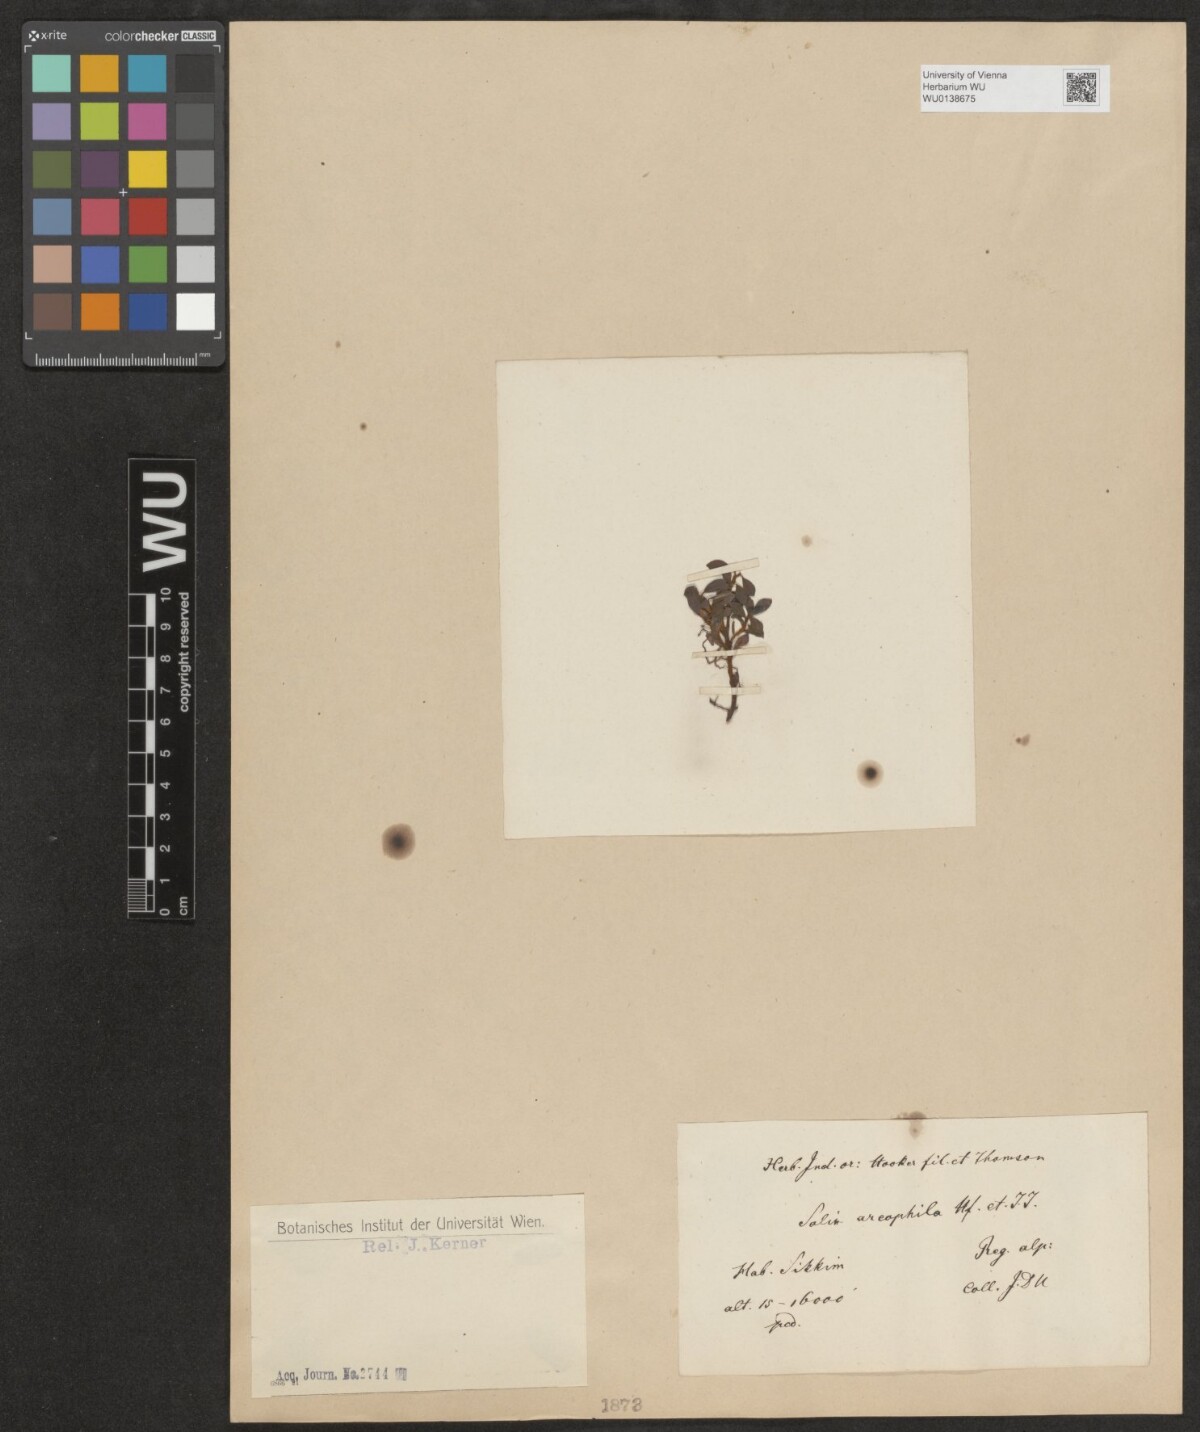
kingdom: Plantae
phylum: Tracheophyta
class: Magnoliopsida
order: Malpighiales
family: Salicaceae
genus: Salix
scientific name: Salix oreophila
